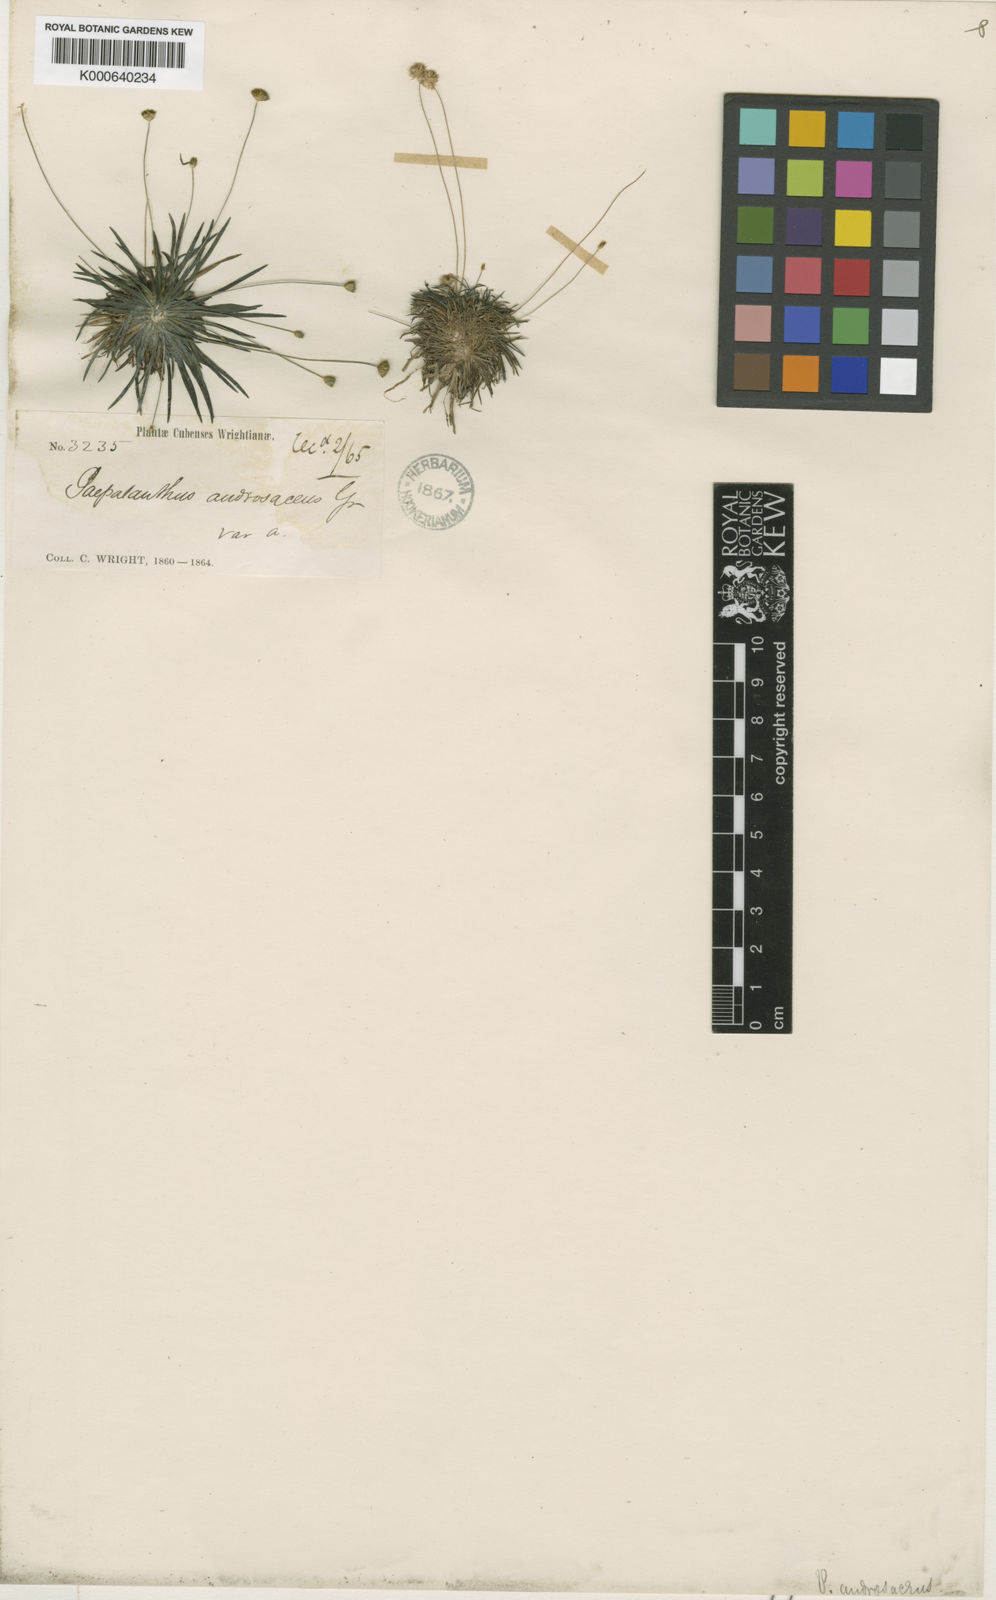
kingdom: Plantae
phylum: Tracheophyta
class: Liliopsida
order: Poales
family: Eriocaulaceae
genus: Syngonanthus
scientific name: Syngonanthus androsaceus
